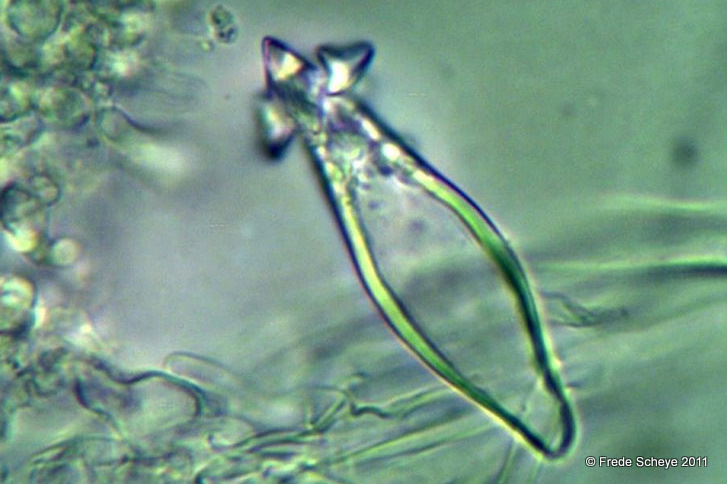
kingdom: Fungi
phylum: Basidiomycota
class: Agaricomycetes
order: Agaricales
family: Physalacriaceae
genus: Strobilurus
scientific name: Strobilurus esculentus
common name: gran-koglehat
